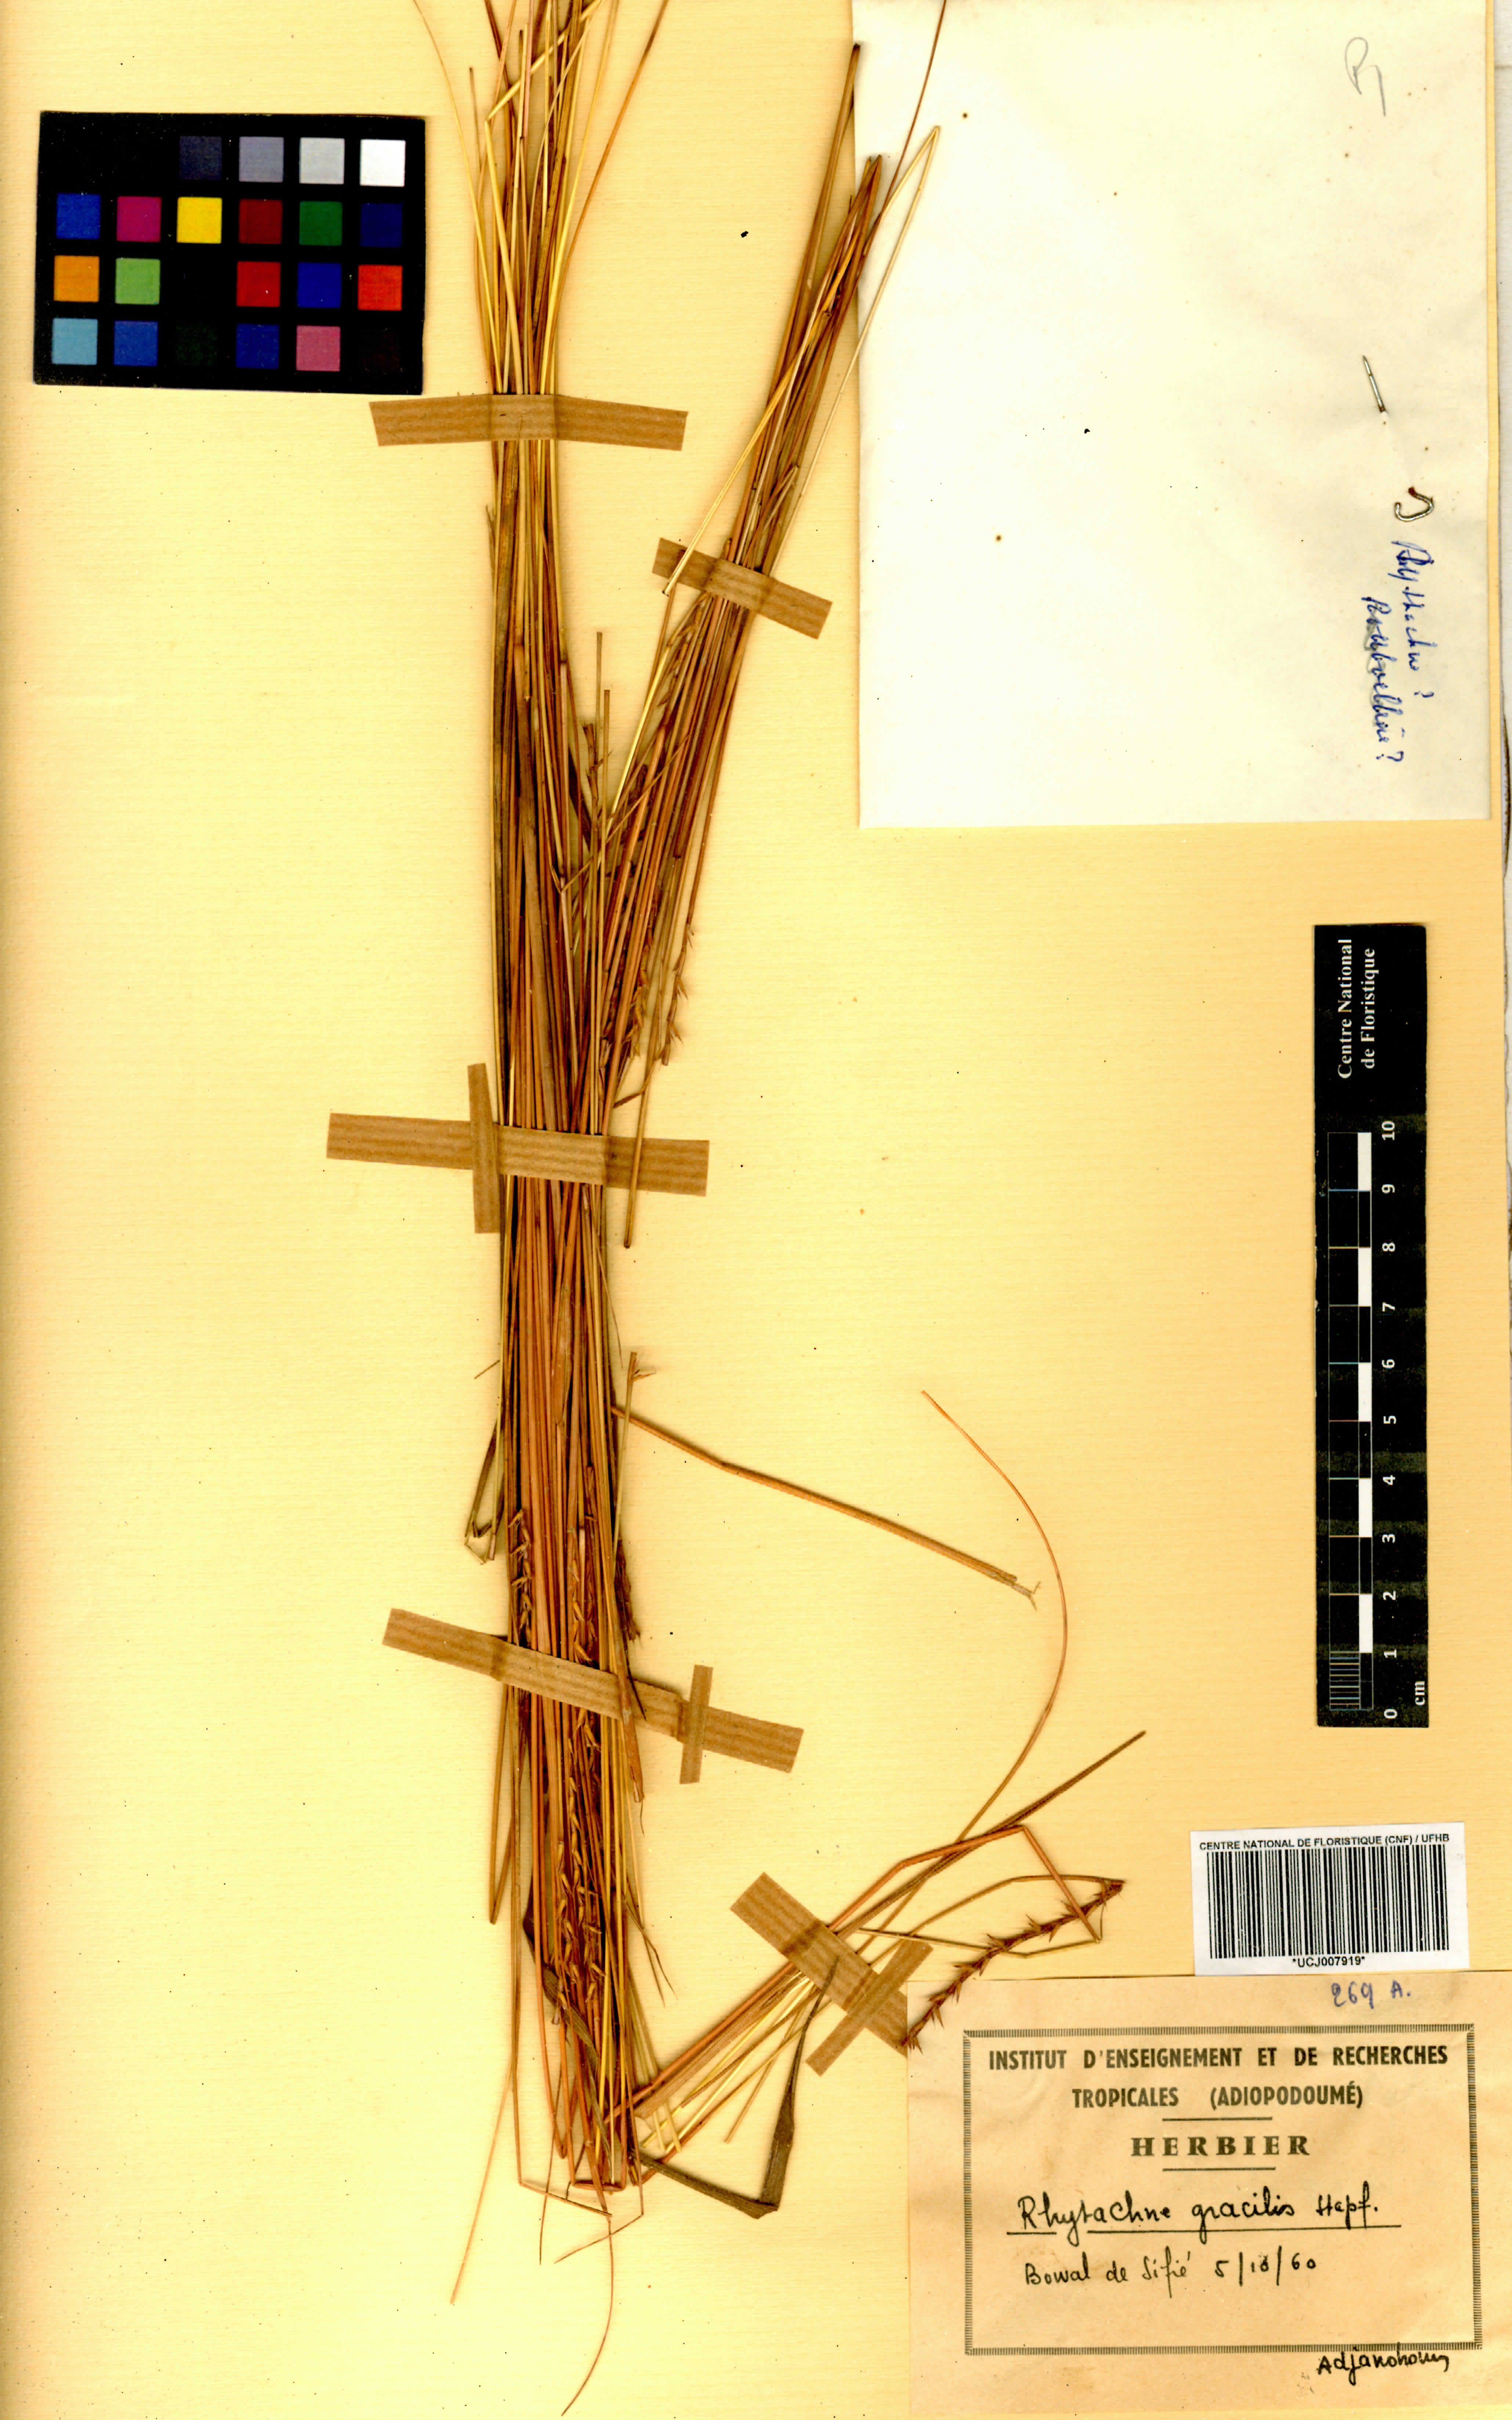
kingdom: Plantae
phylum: Tracheophyta
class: Liliopsida
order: Poales
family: Poaceae
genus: Rhytachne
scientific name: Rhytachne gracilis
